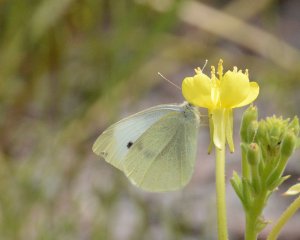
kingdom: Animalia
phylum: Arthropoda
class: Insecta
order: Lepidoptera
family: Pieridae
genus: Pieris
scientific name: Pieris rapae
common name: Cabbage White
